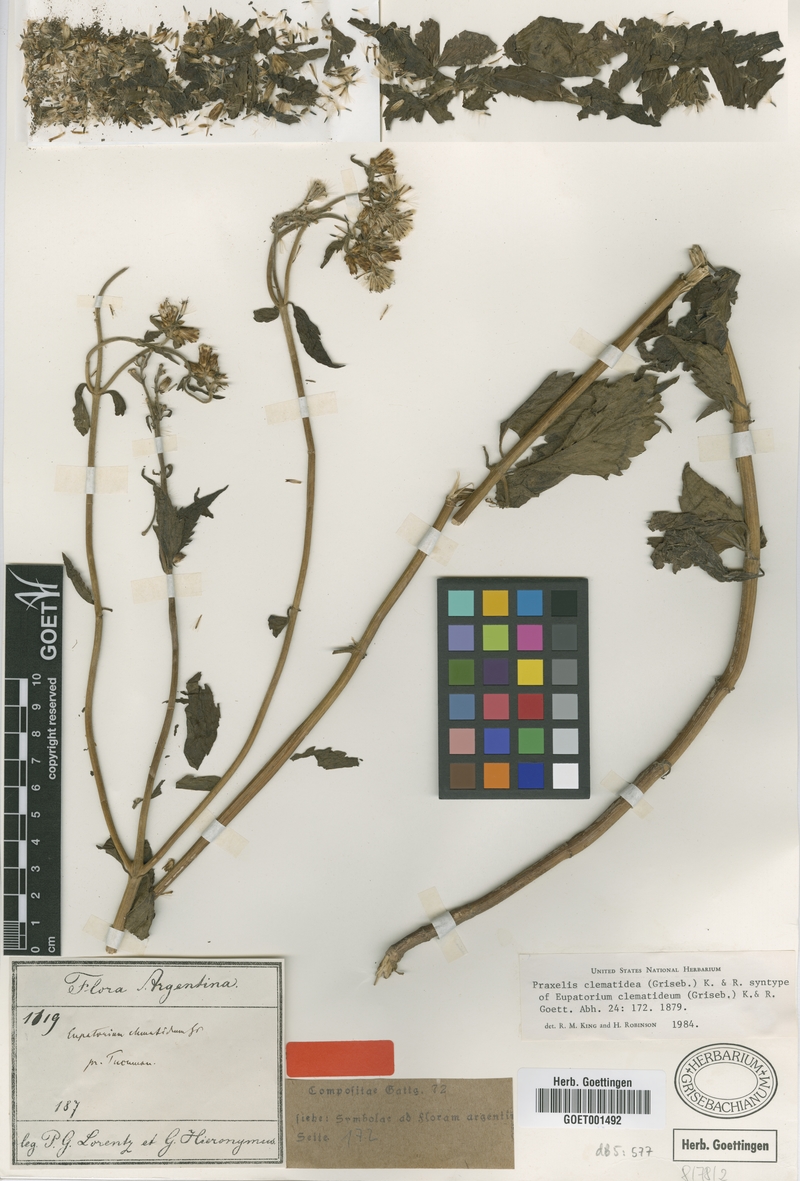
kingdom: Plantae
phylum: Tracheophyta
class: Magnoliopsida
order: Asterales
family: Asteraceae
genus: Praxelis
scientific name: Praxelis clematidea
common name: Praxelis
